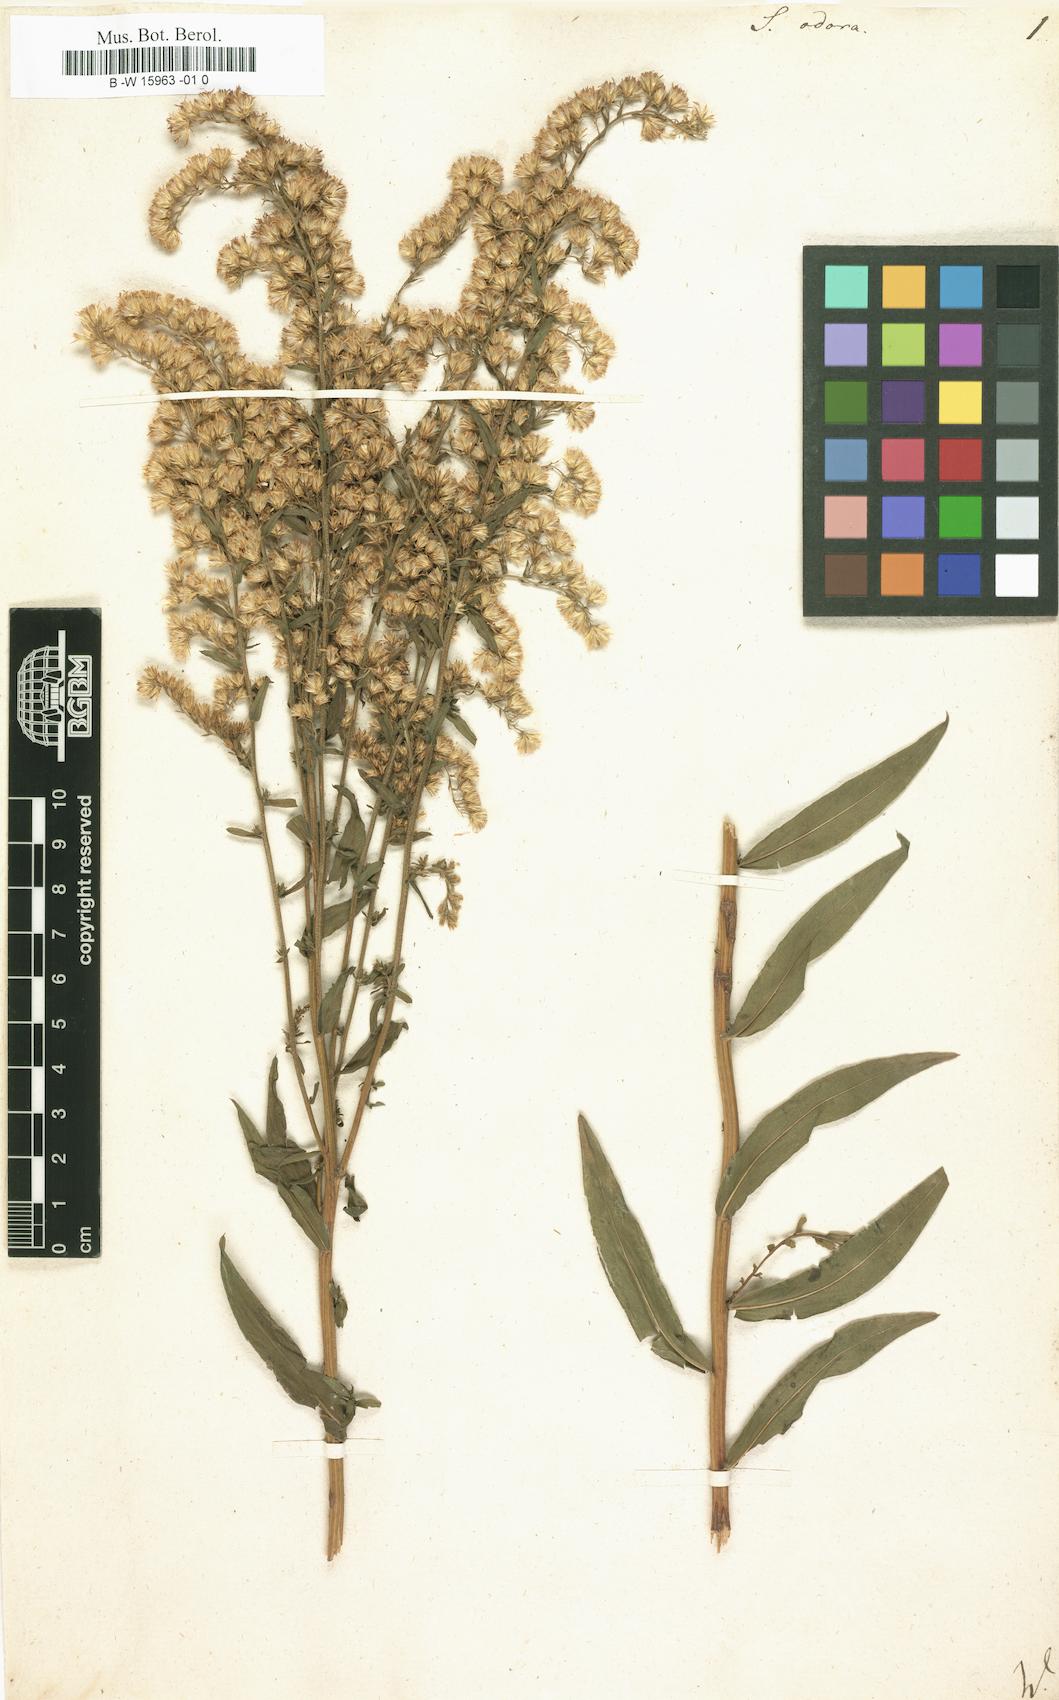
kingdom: Plantae
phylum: Tracheophyta
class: Magnoliopsida
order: Asterales
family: Asteraceae
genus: Solidago
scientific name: Solidago odora
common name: Anise-scented goldenrod
